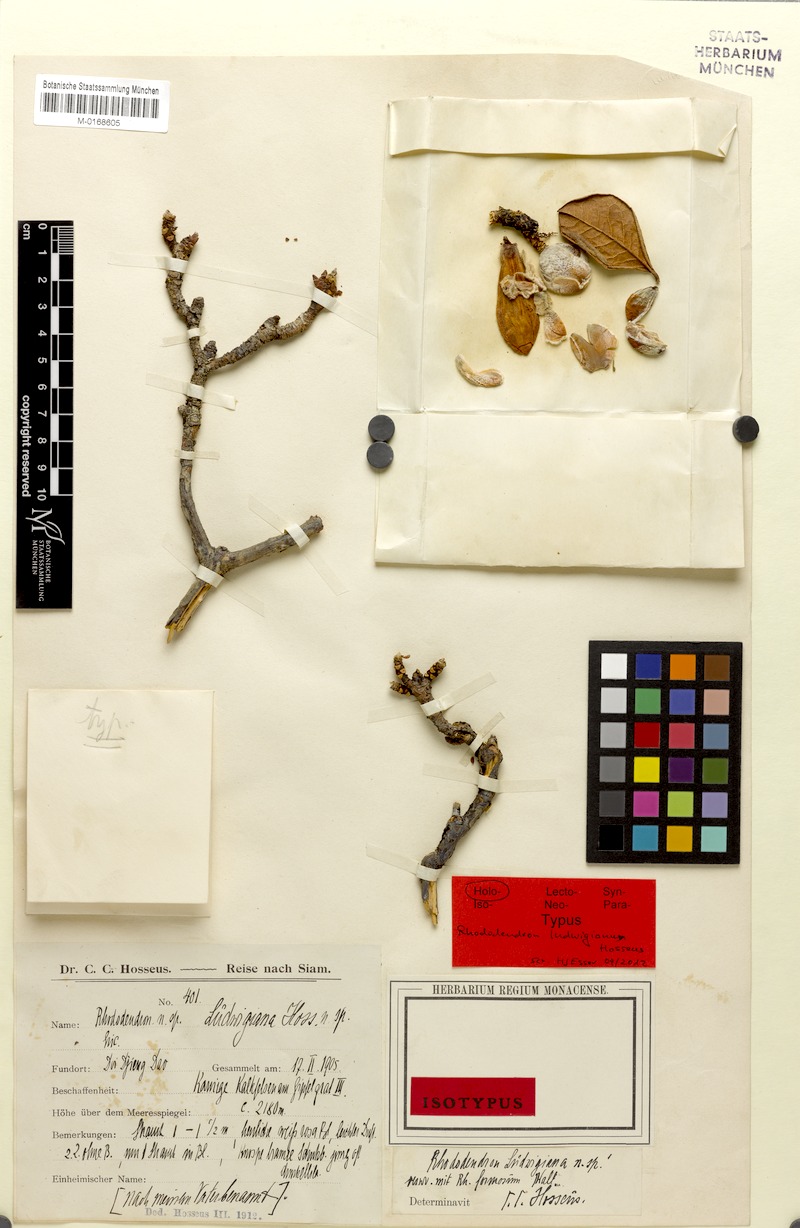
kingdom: Plantae
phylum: Tracheophyta
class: Magnoliopsida
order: Ericales
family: Ericaceae
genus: Rhododendron
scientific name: Rhododendron ciliicalyx
